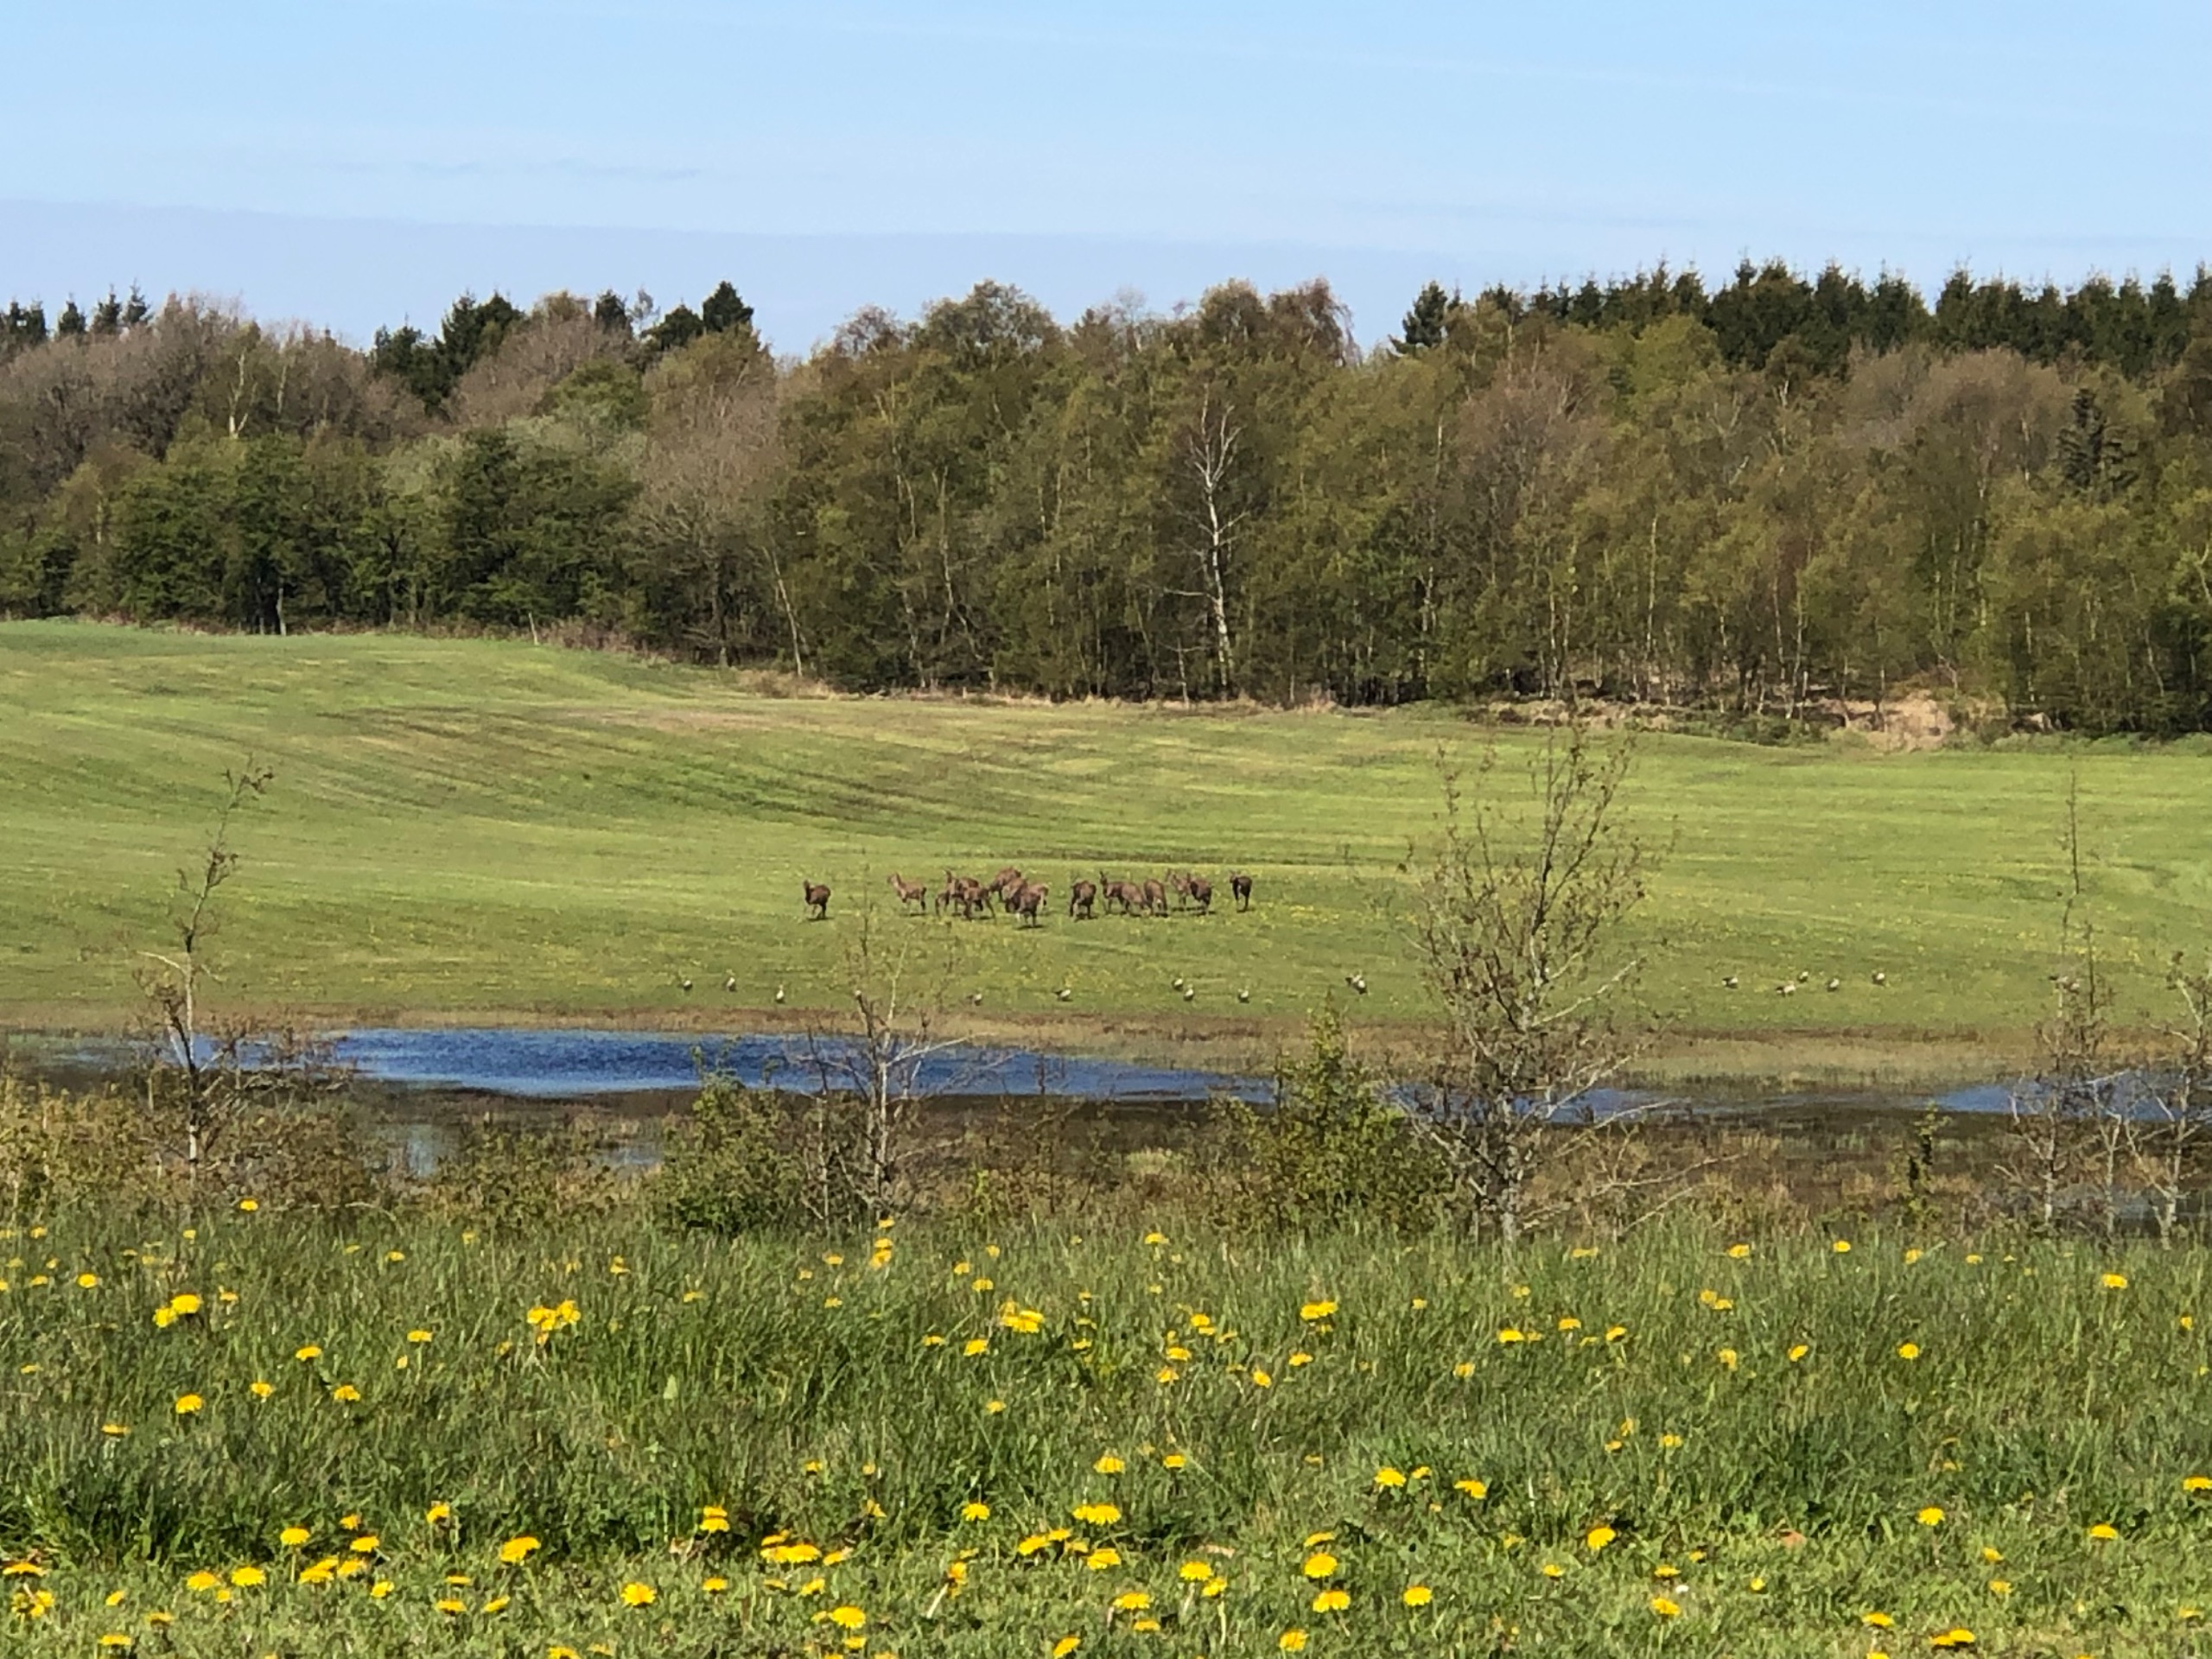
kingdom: Animalia
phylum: Chordata
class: Mammalia
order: Artiodactyla
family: Cervidae
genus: Cervus
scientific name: Cervus elaphus
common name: Krondyr
